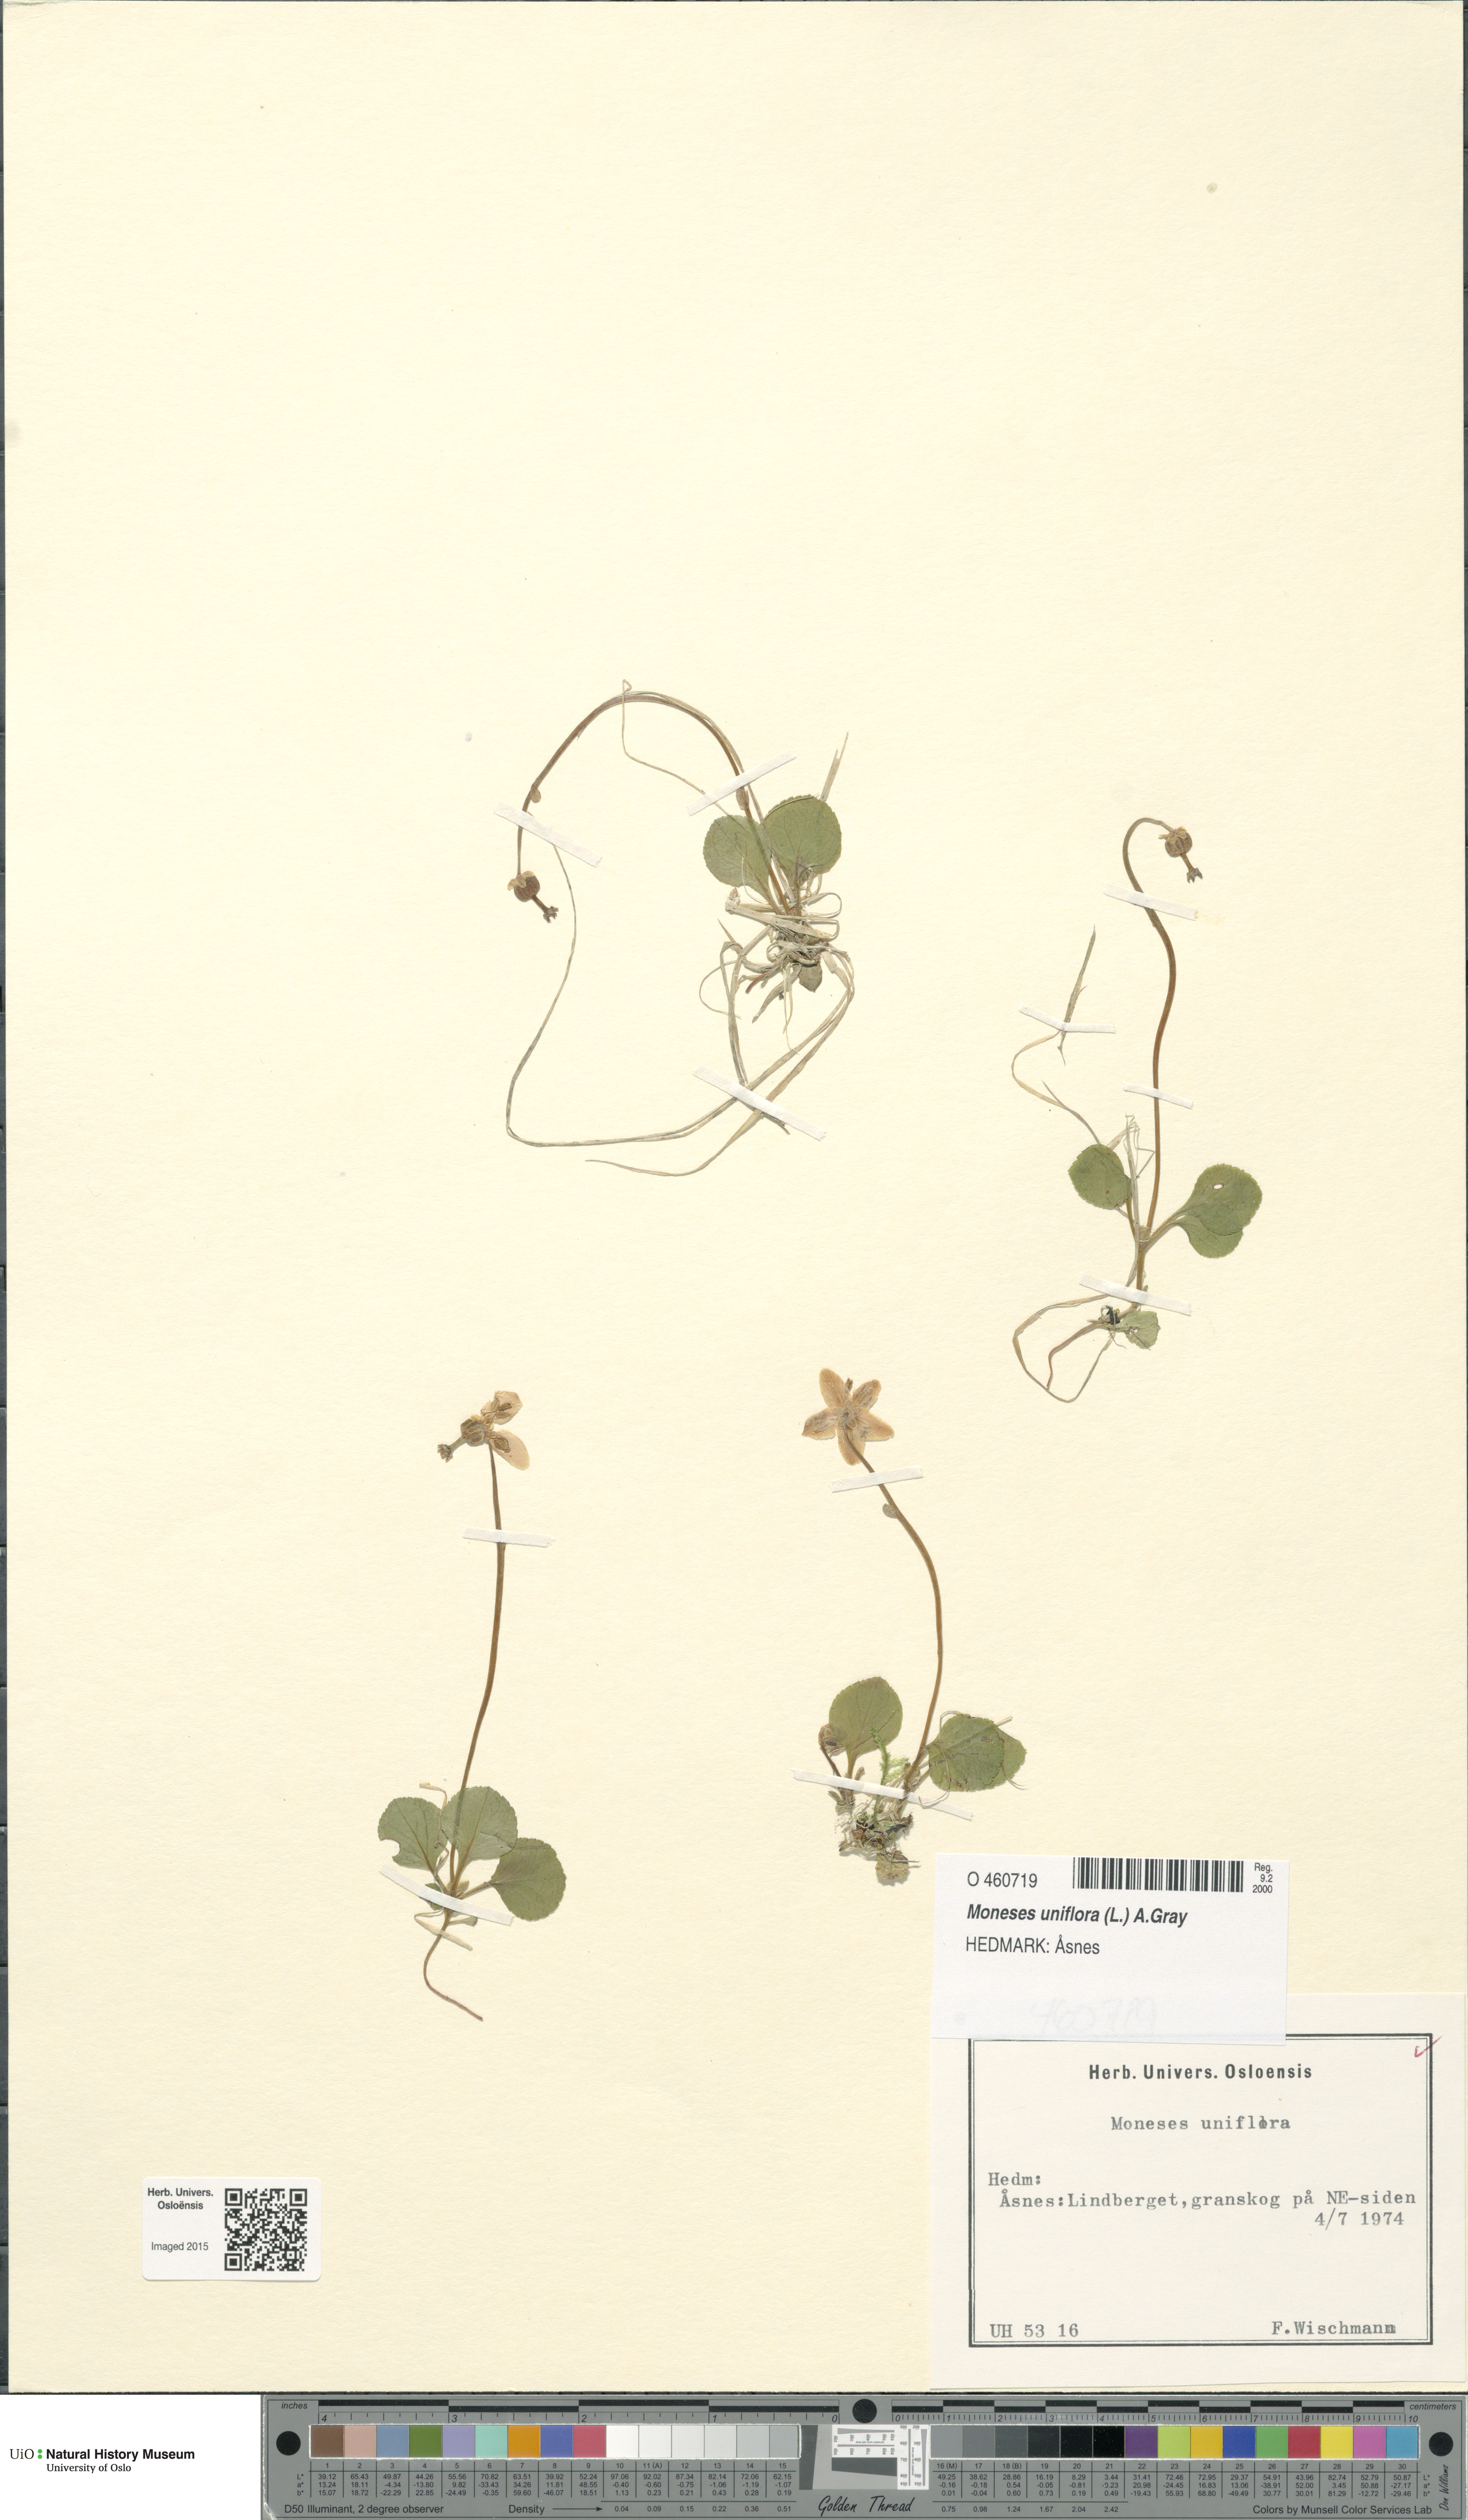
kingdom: Plantae
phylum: Tracheophyta
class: Magnoliopsida
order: Ericales
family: Ericaceae
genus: Moneses
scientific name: Moneses uniflora
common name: One-flowered wintergreen
